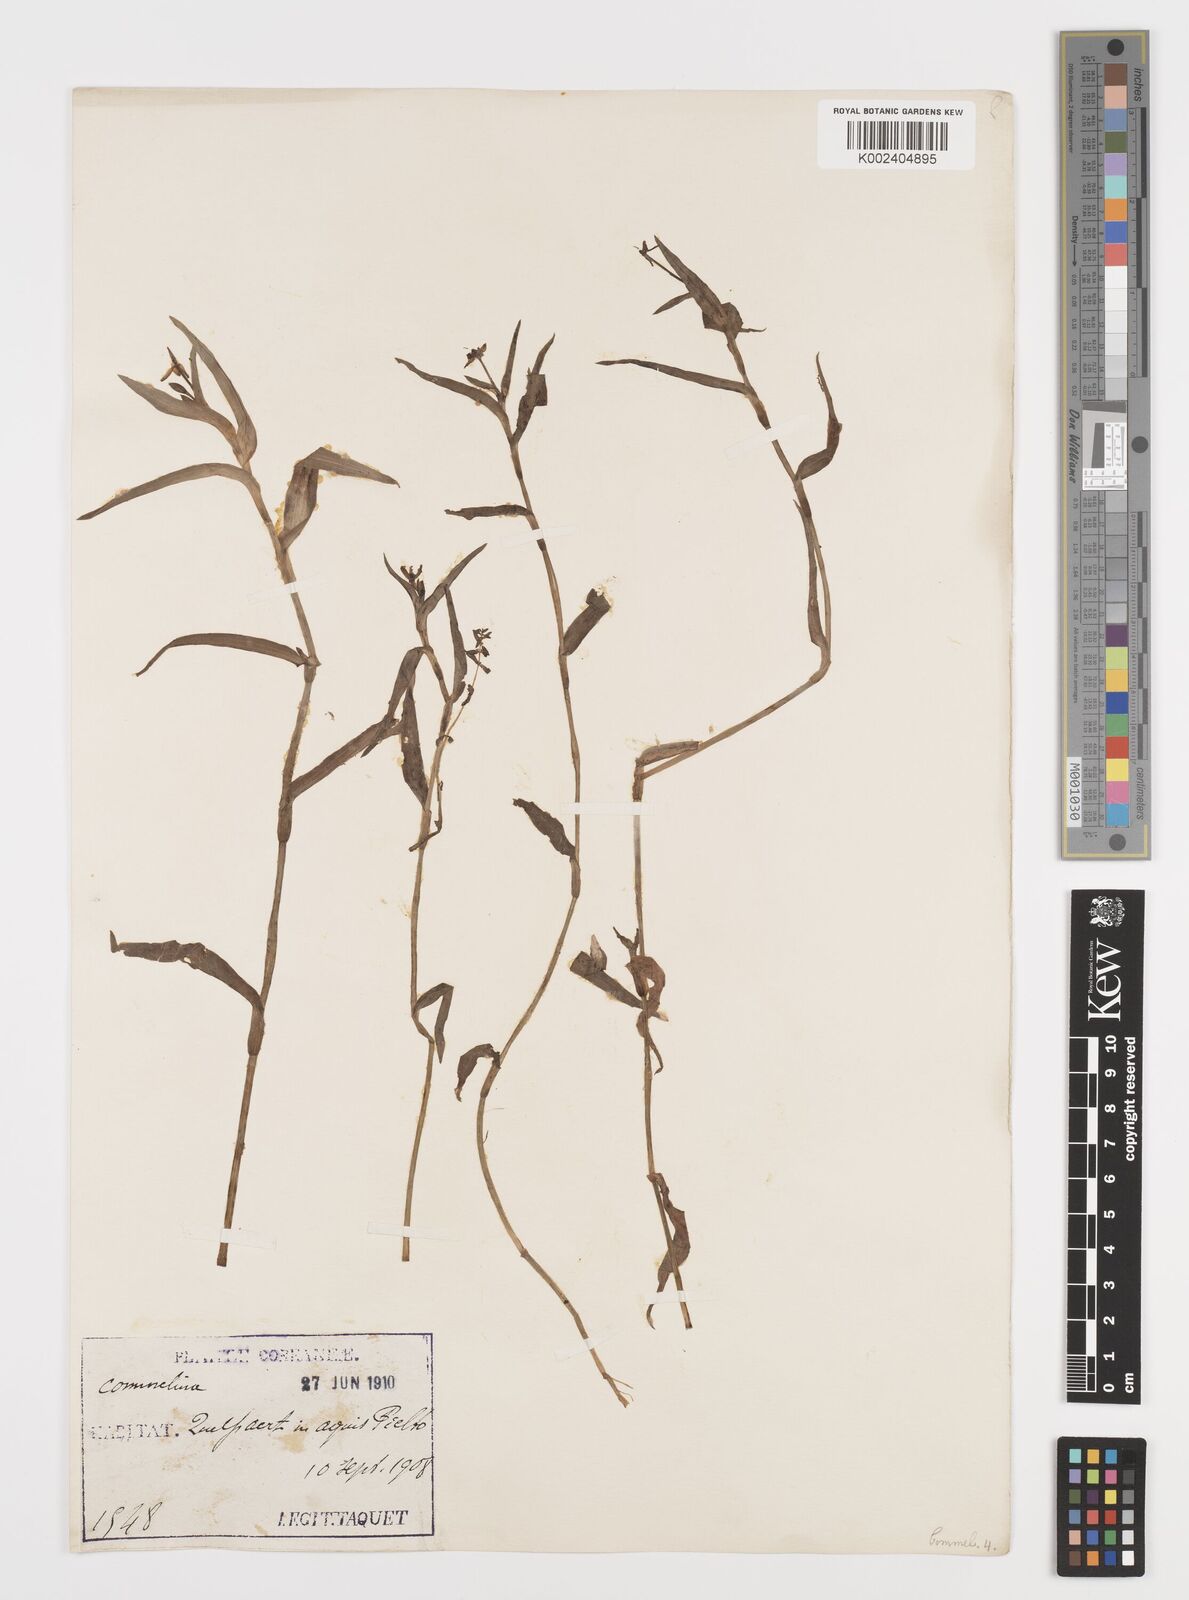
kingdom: Plantae
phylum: Tracheophyta
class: Liliopsida
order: Commelinales
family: Commelinaceae
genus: Commelina
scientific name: Commelina
